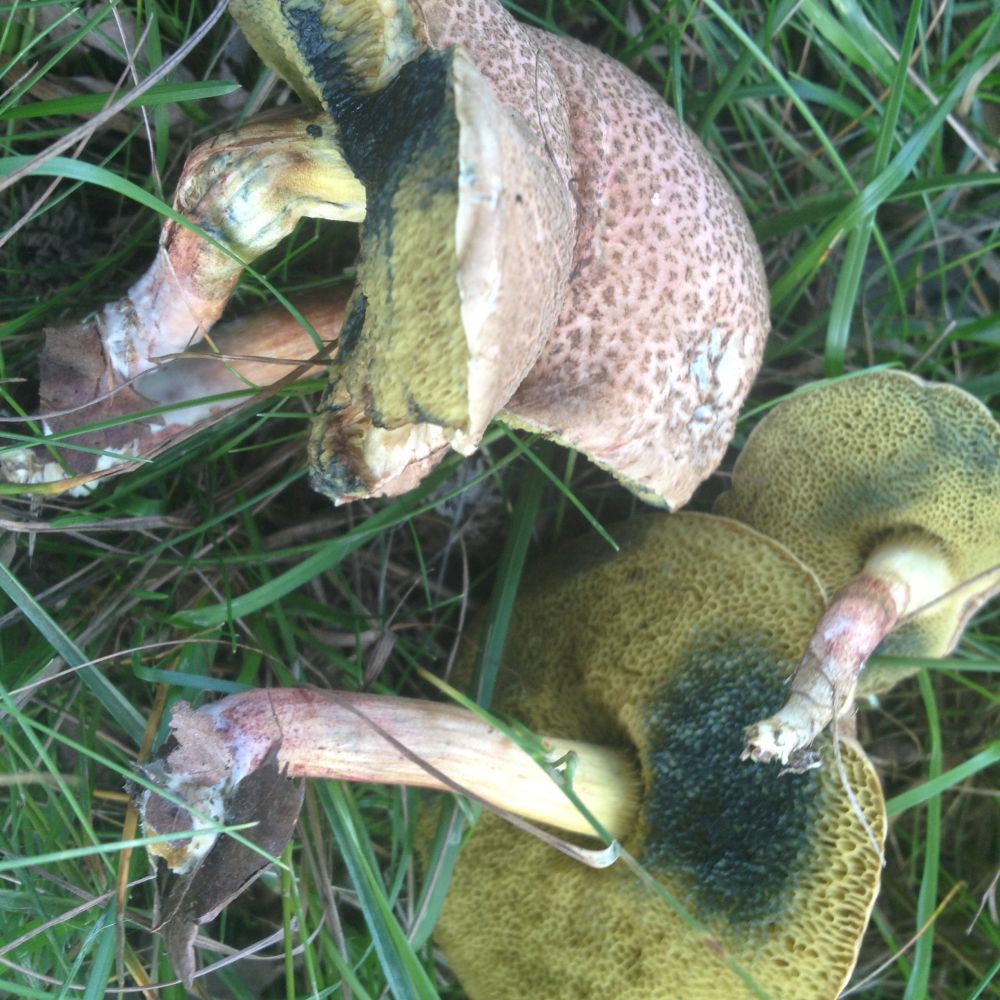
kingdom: Fungi
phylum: Basidiomycota
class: Agaricomycetes
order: Boletales
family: Boletaceae
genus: Xerocomellus
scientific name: Xerocomellus cisalpinus
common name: finsprukken rørhat
